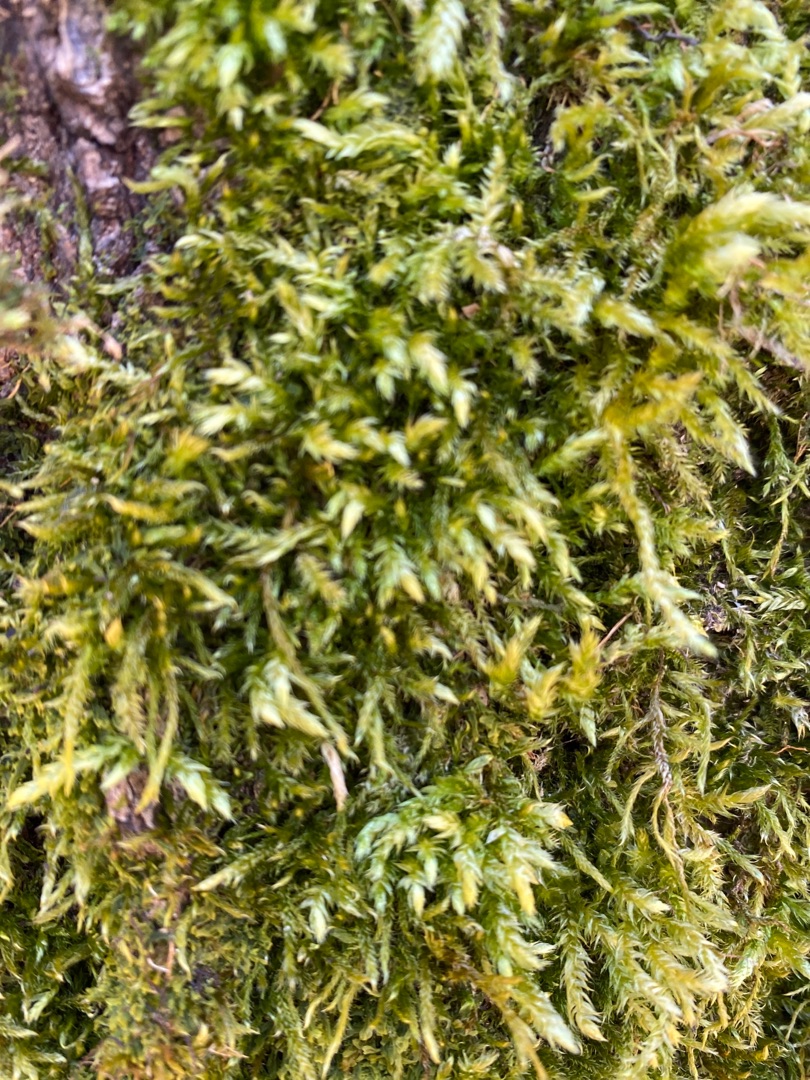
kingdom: Plantae
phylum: Bryophyta
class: Bryopsida
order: Hypnales
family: Brachytheciaceae
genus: Brachythecium
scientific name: Brachythecium rutabulum
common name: Almindelig kortkapsel
